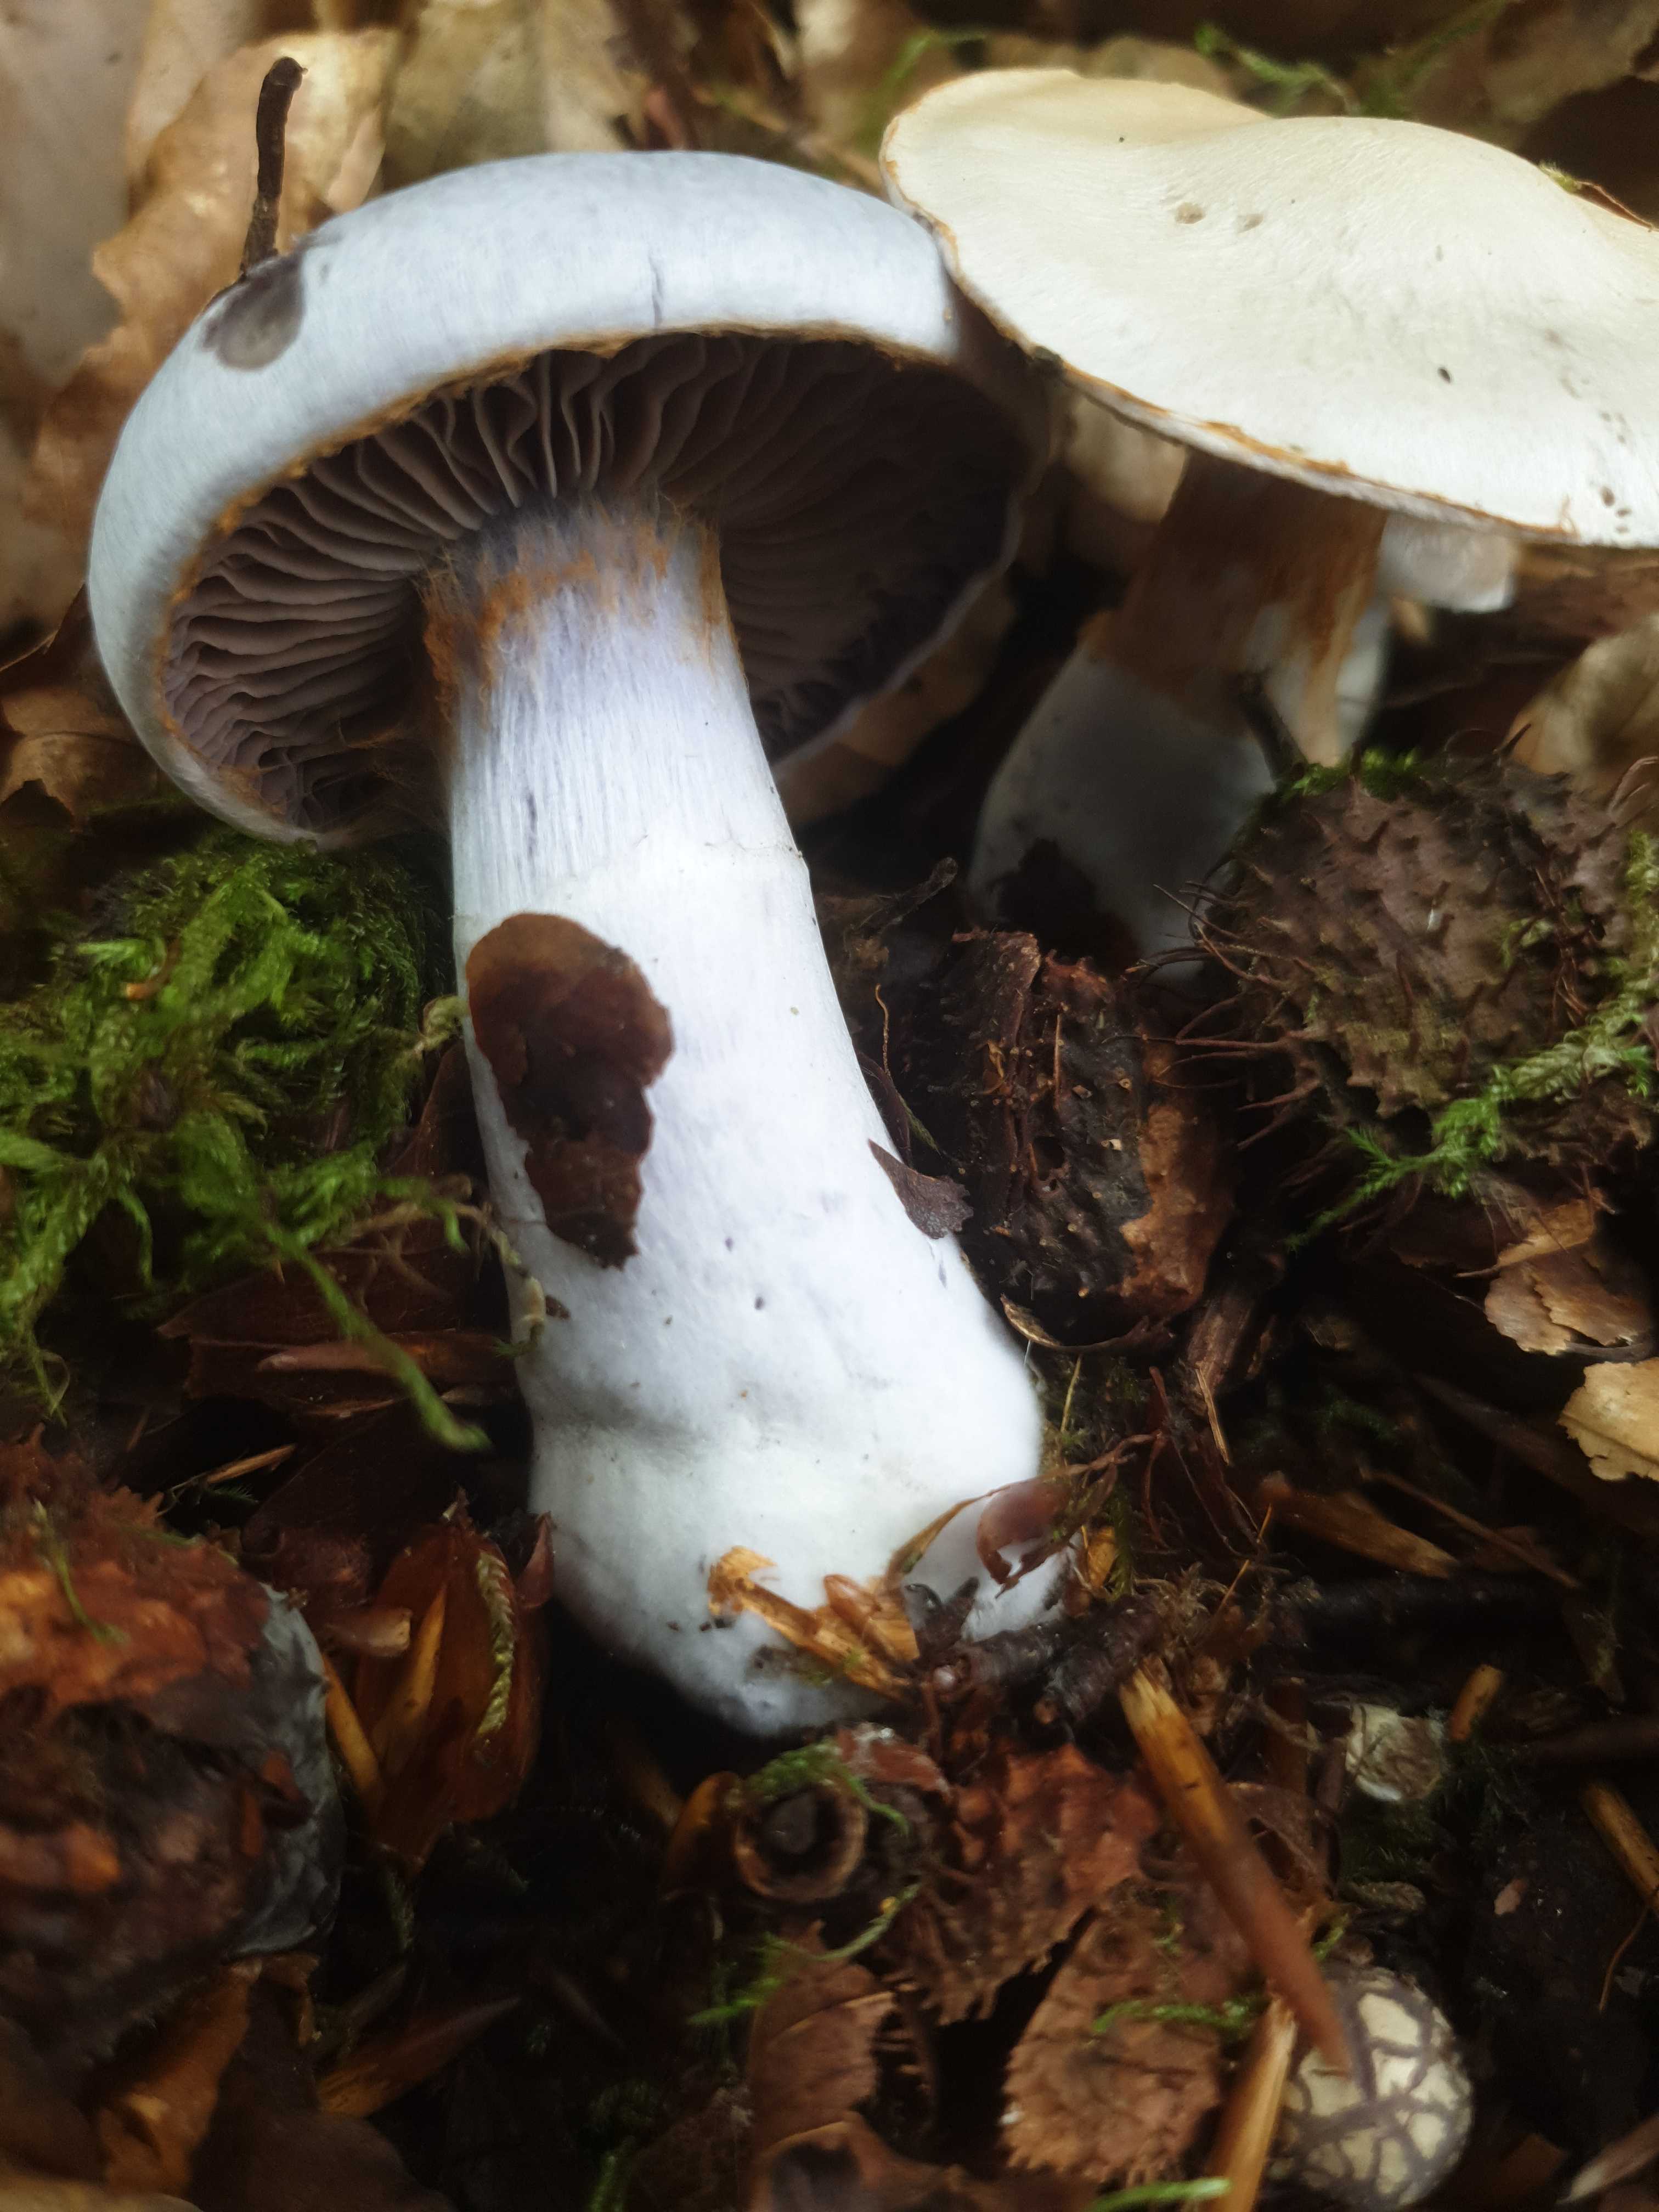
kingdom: Fungi
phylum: Basidiomycota
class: Agaricomycetes
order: Agaricales
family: Cortinariaceae
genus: Cortinarius
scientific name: Cortinarius alboviolaceus
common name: lysviolet slørhat
